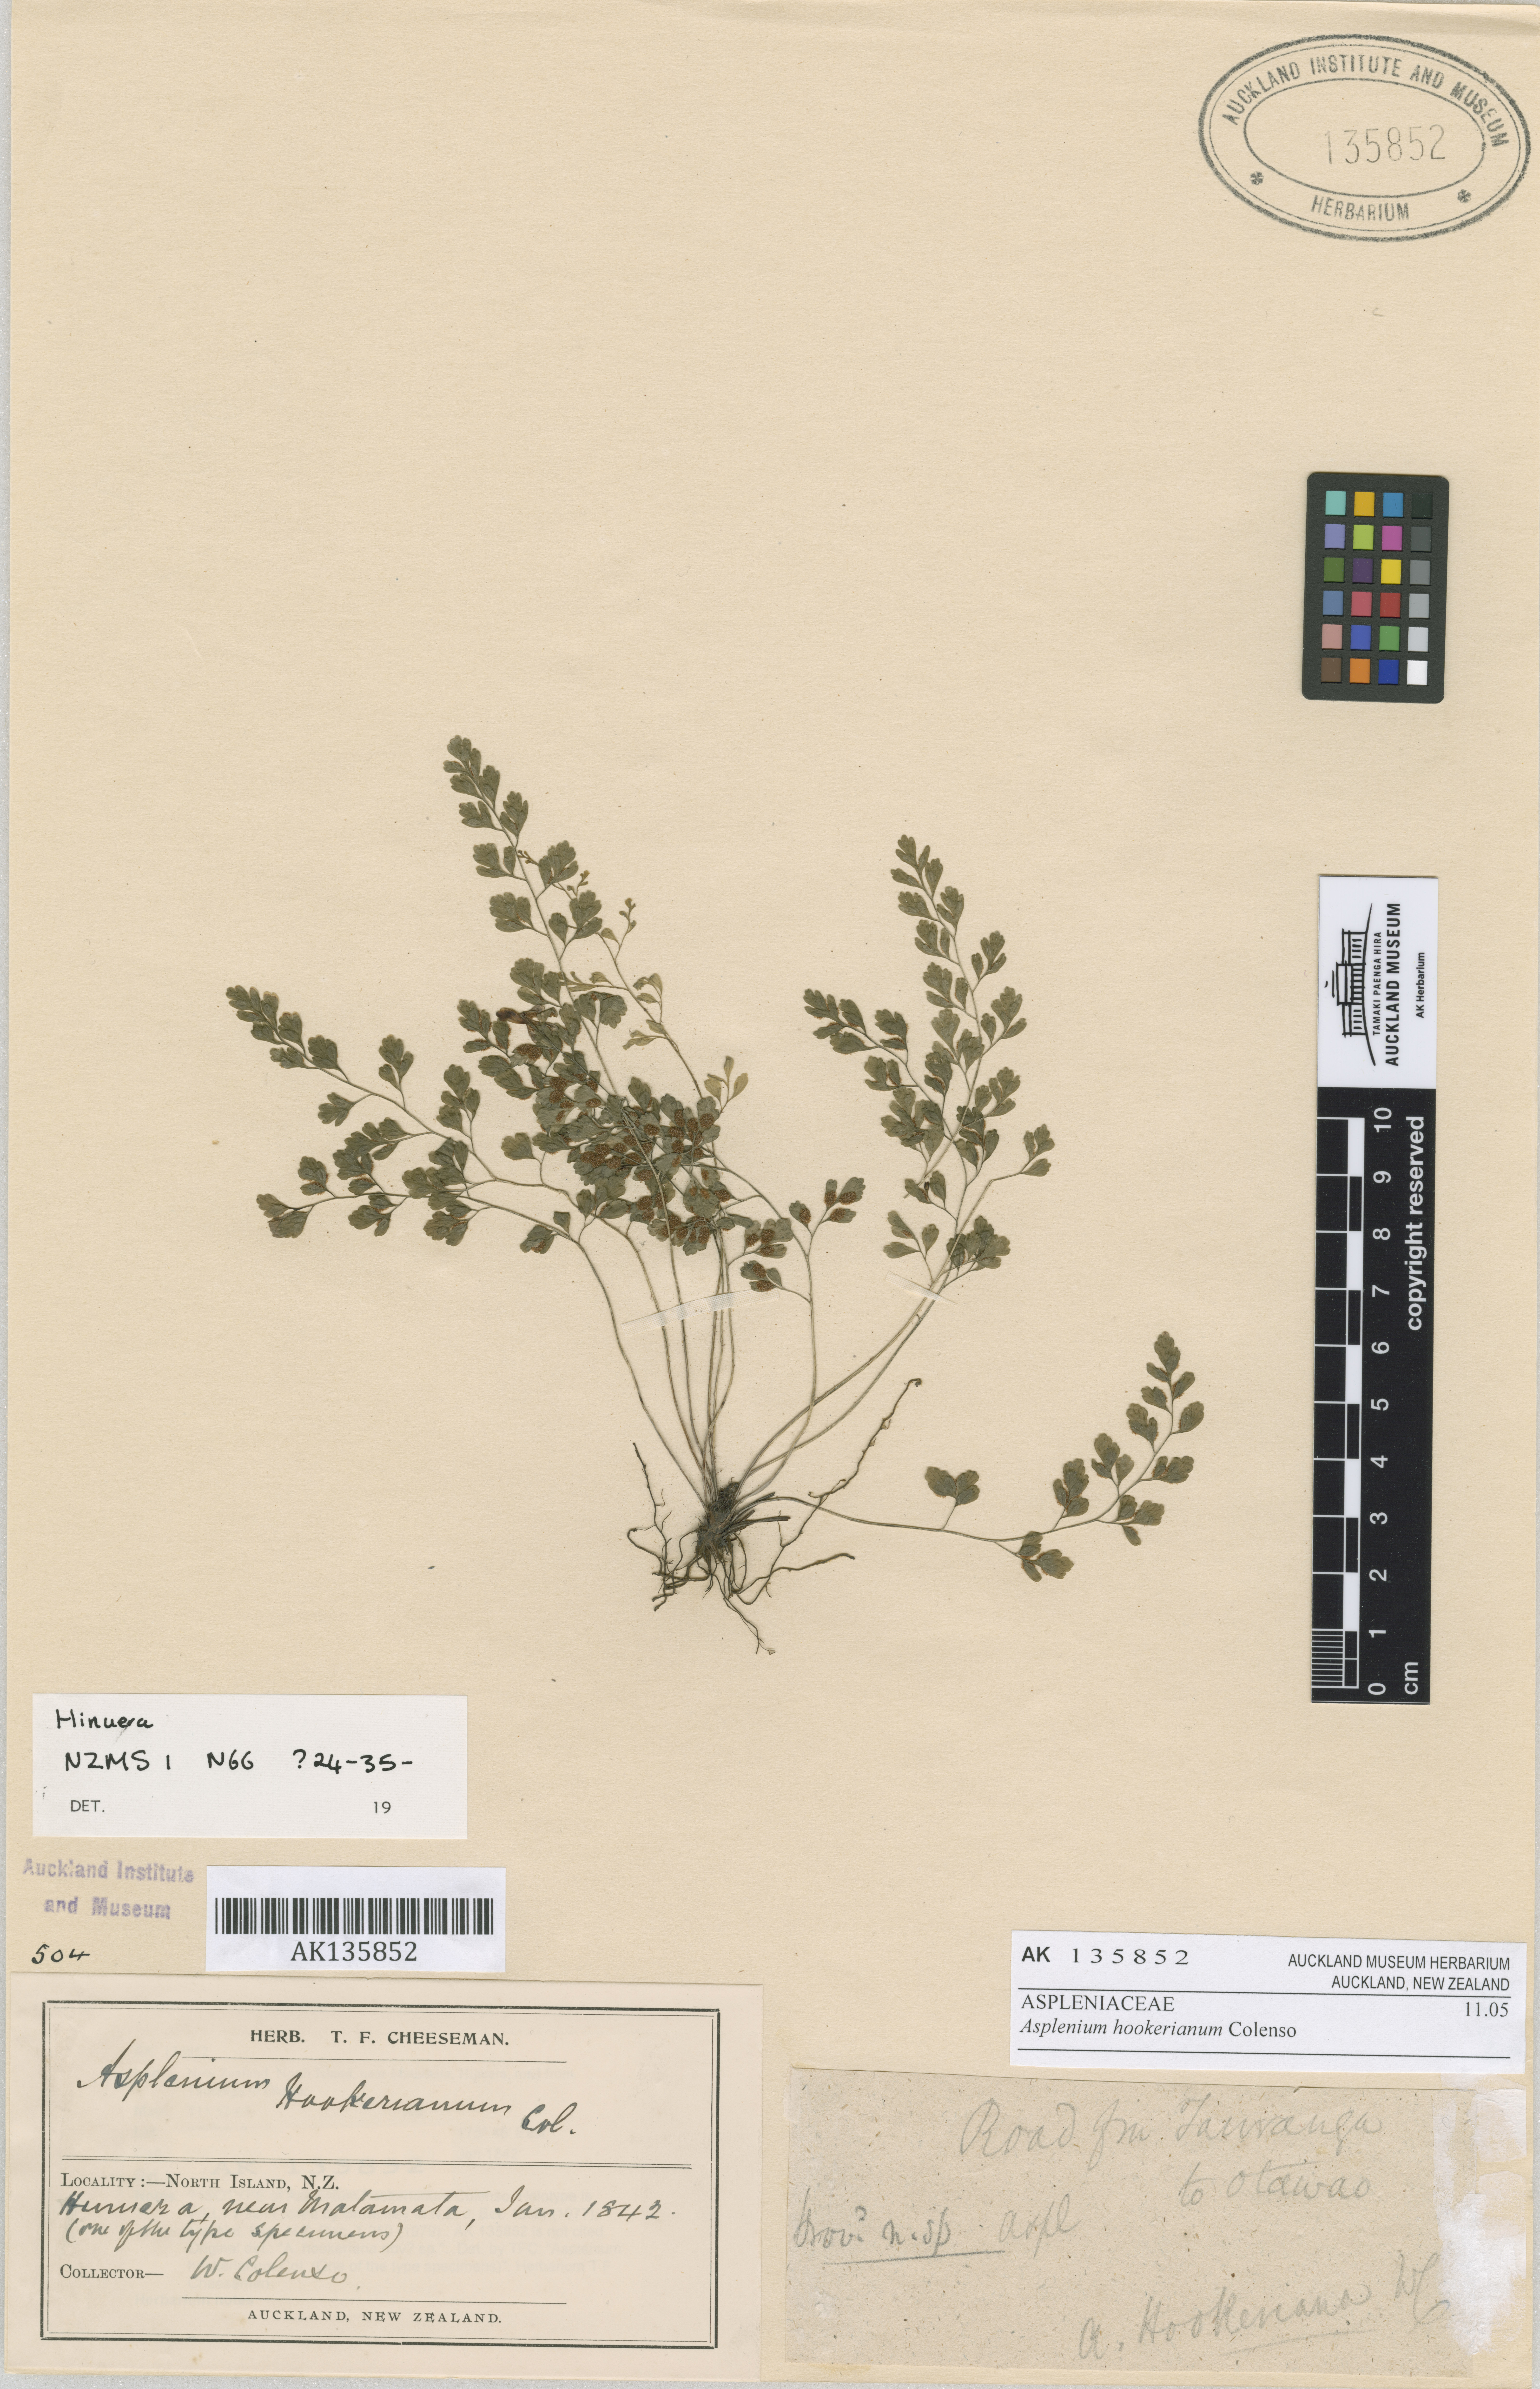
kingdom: Plantae
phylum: Tracheophyta
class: Polypodiopsida
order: Polypodiales
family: Aspleniaceae
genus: Asplenium
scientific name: Asplenium hookerianum
